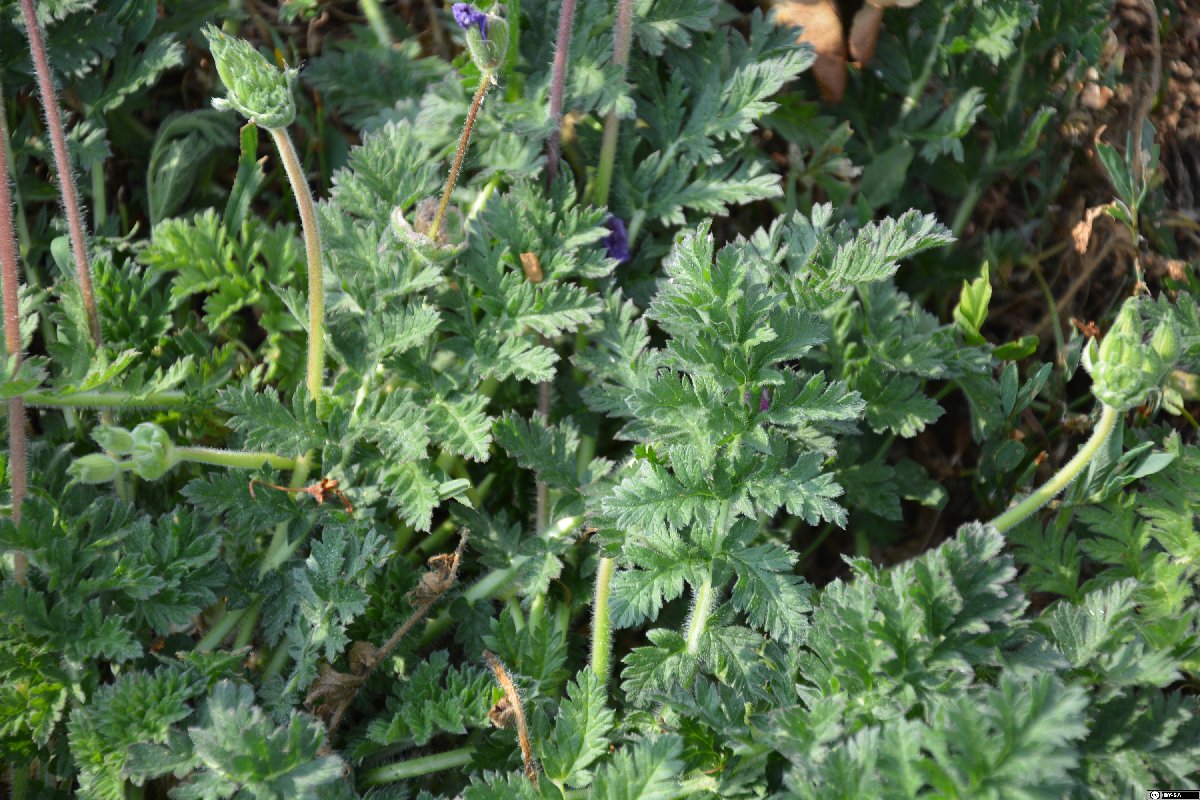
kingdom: Plantae
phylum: Tracheophyta
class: Magnoliopsida
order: Geraniales
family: Geraniaceae
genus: Erodium
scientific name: Erodium manescavi
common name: Garden stork's-bill
